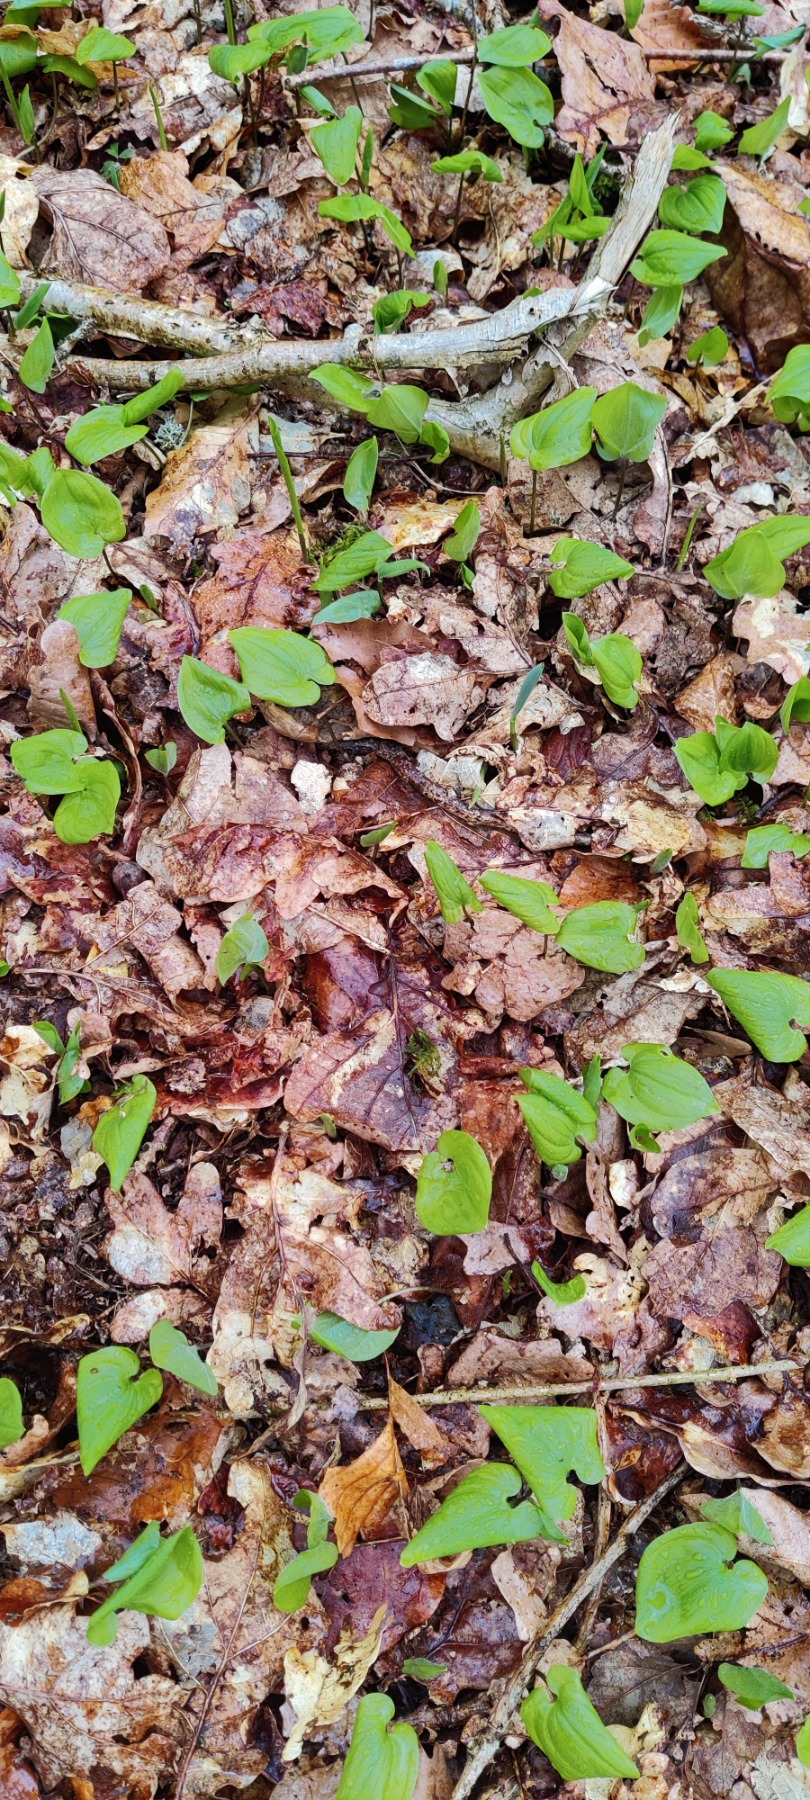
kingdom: Plantae
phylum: Tracheophyta
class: Liliopsida
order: Asparagales
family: Asparagaceae
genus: Maianthemum
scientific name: Maianthemum bifolium
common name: Majblomst
